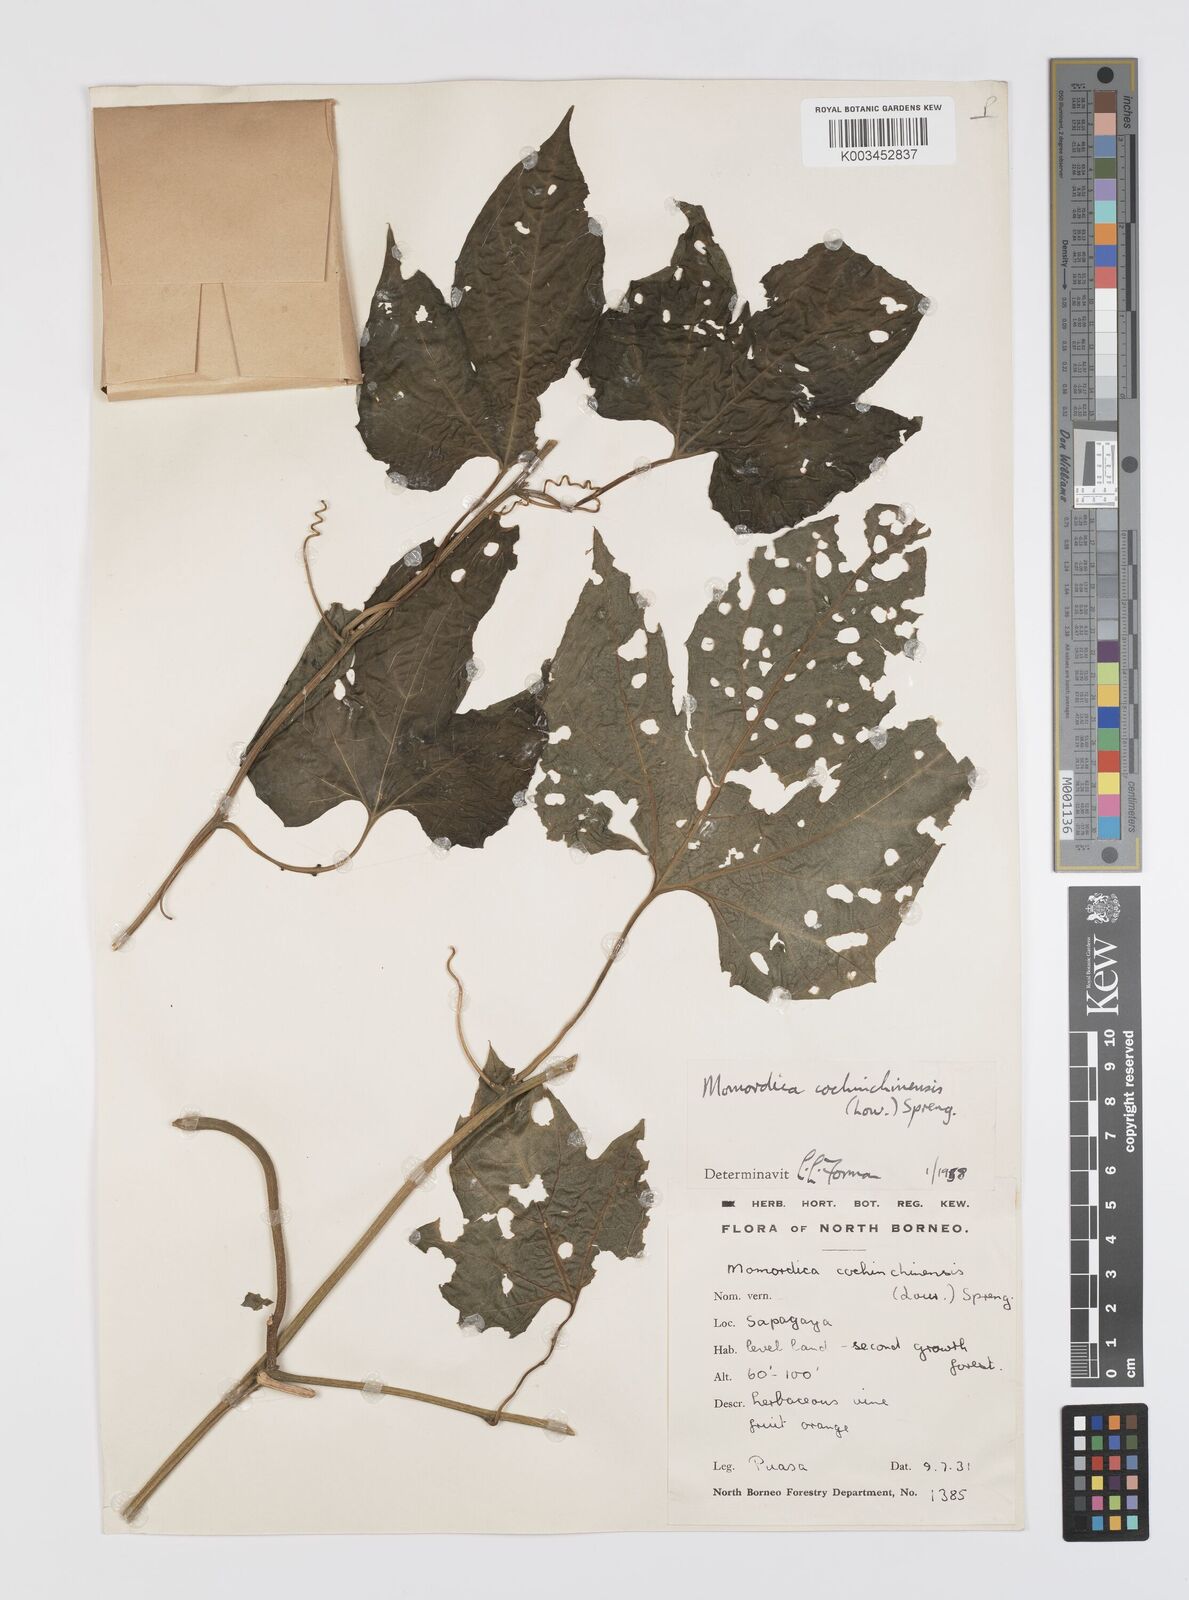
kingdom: Plantae
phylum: Tracheophyta
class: Magnoliopsida
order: Cucurbitales
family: Cucurbitaceae
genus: Momordica
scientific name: Momordica cochinchinensis
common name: Chinese bitter-cucumber
